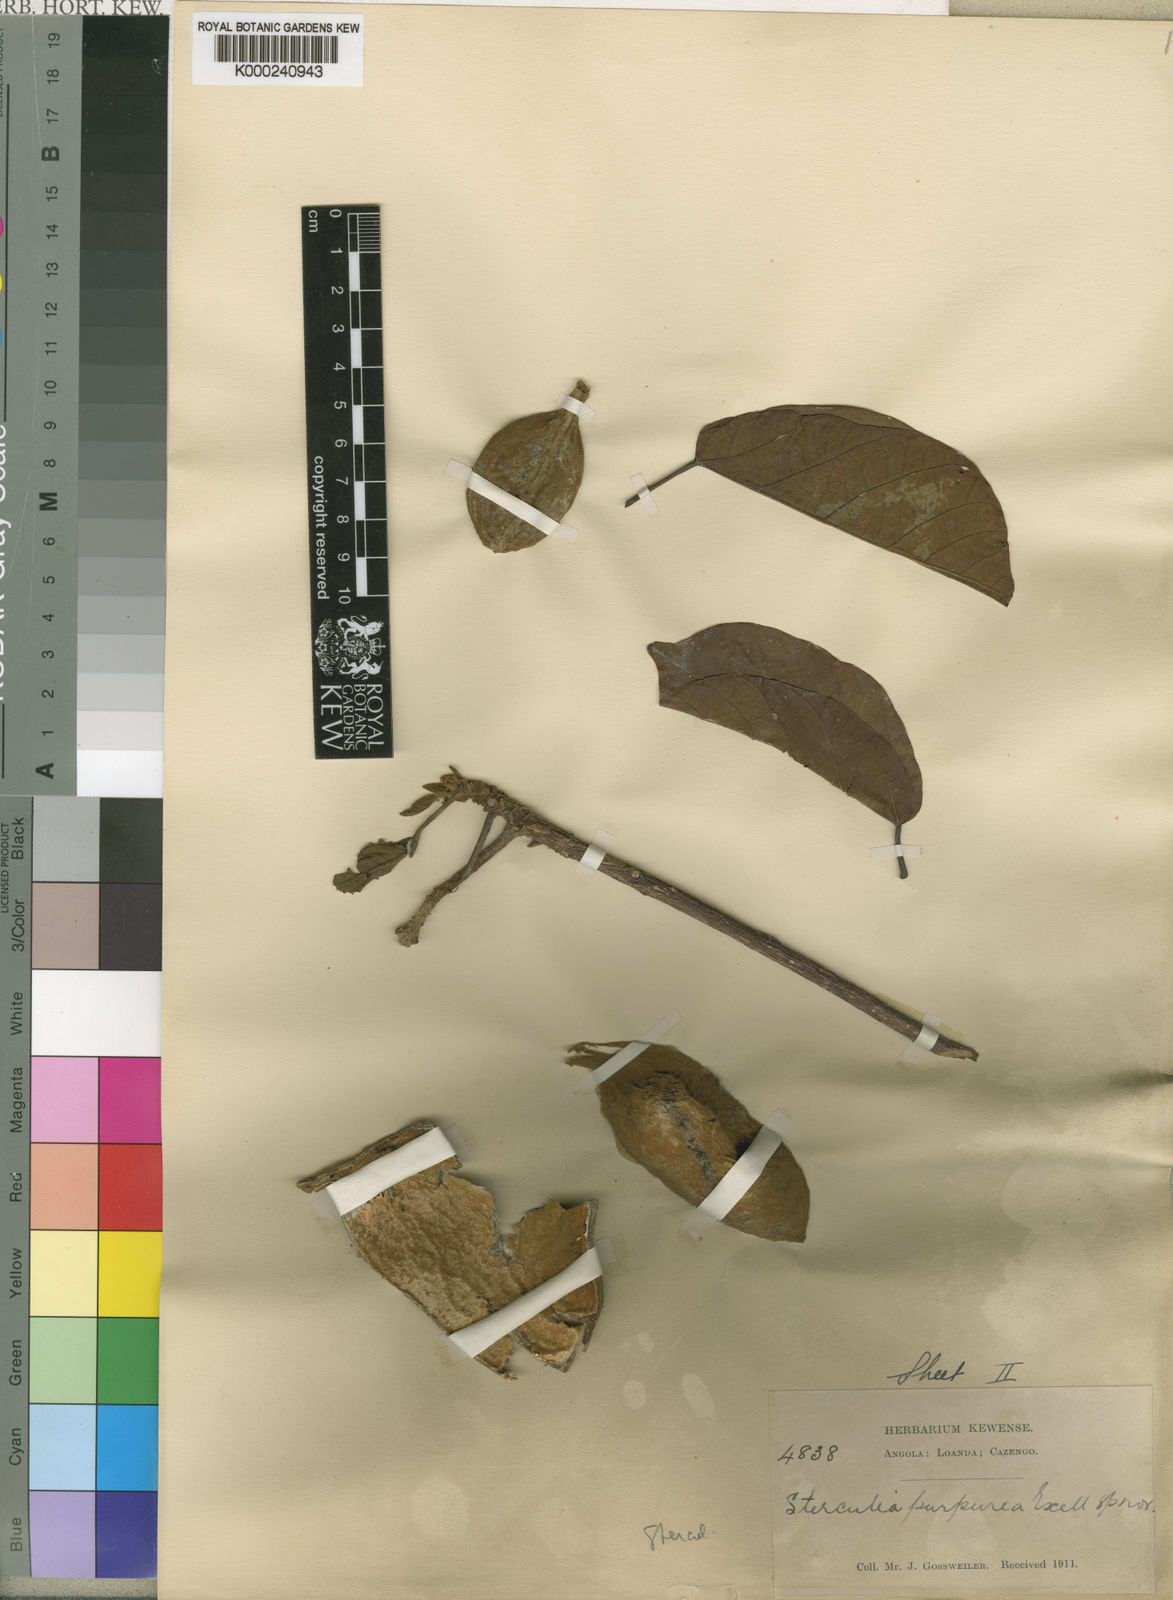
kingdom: Plantae
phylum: Tracheophyta
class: Magnoliopsida
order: Malvales
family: Malvaceae
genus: Sterculia
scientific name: Sterculia dawei
